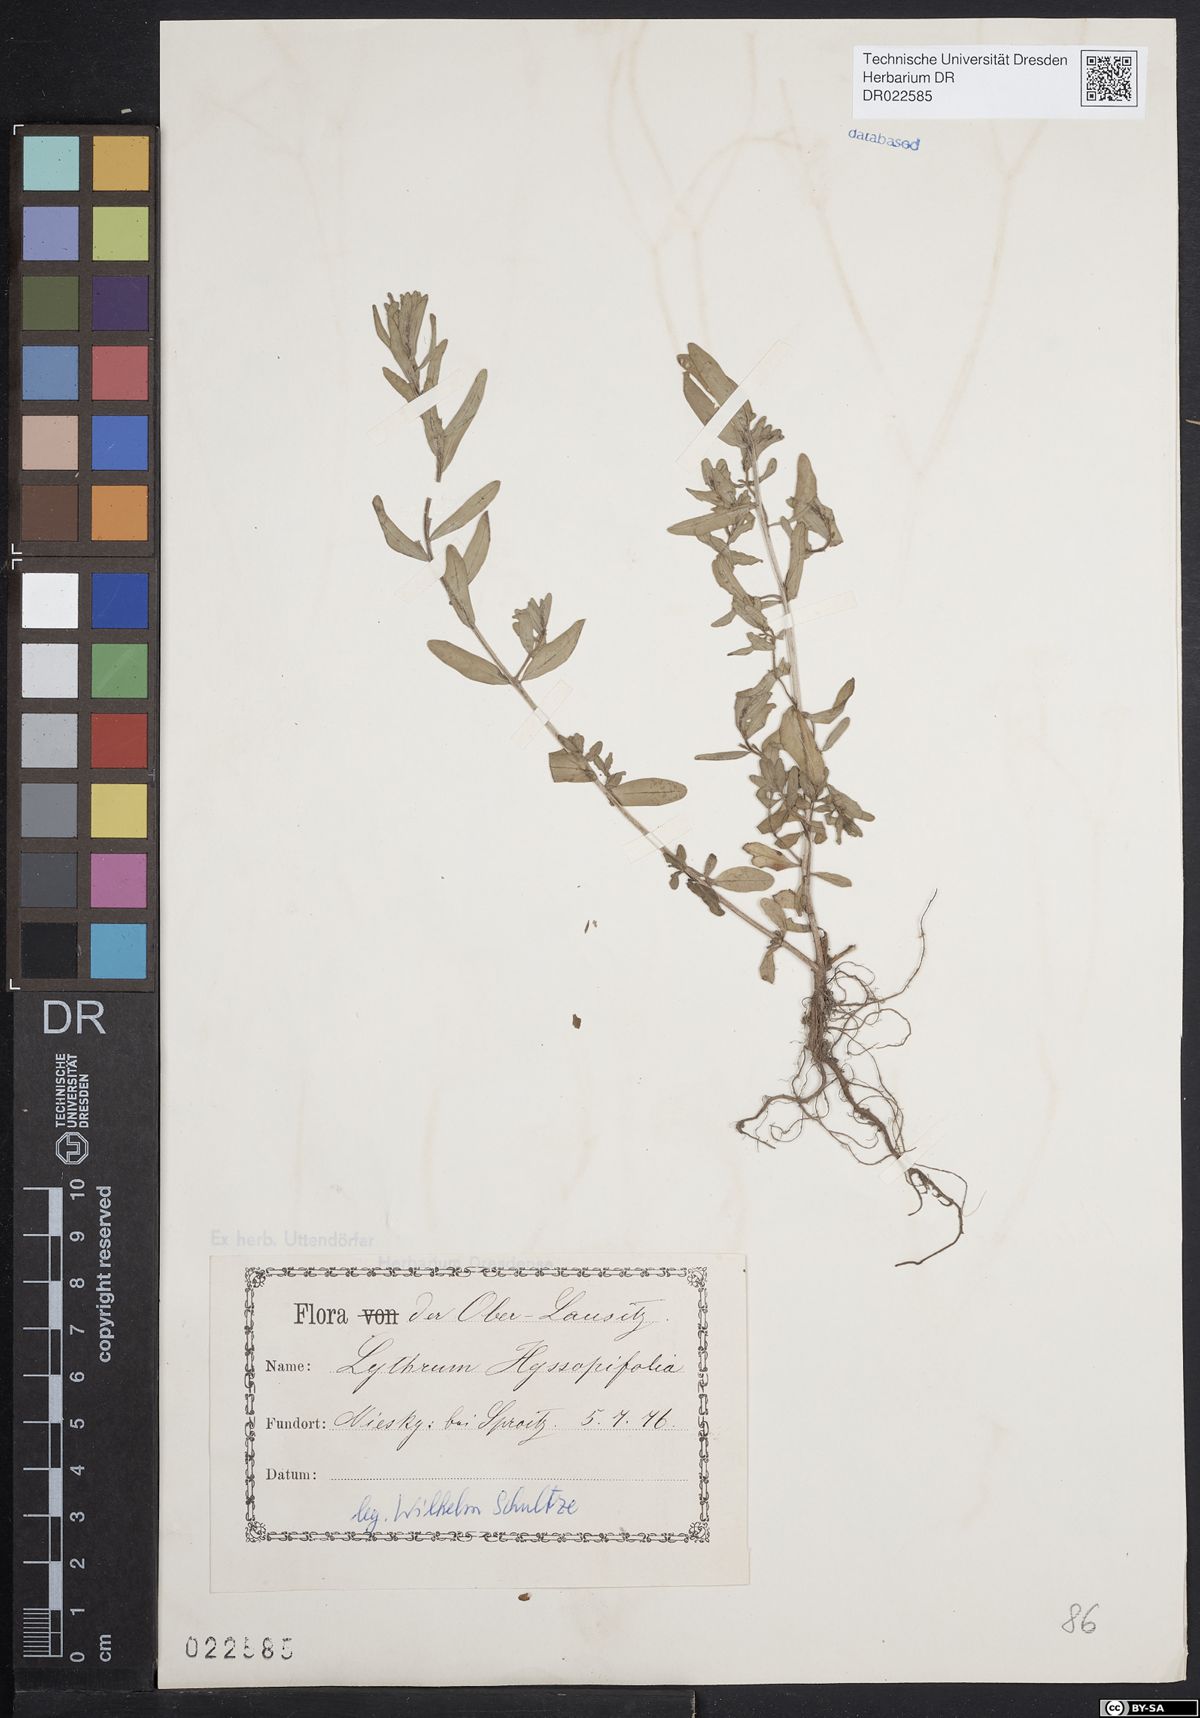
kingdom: Plantae
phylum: Tracheophyta
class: Magnoliopsida
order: Myrtales
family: Lythraceae
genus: Lythrum
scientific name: Lythrum hyssopifolia
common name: Grass-poly
